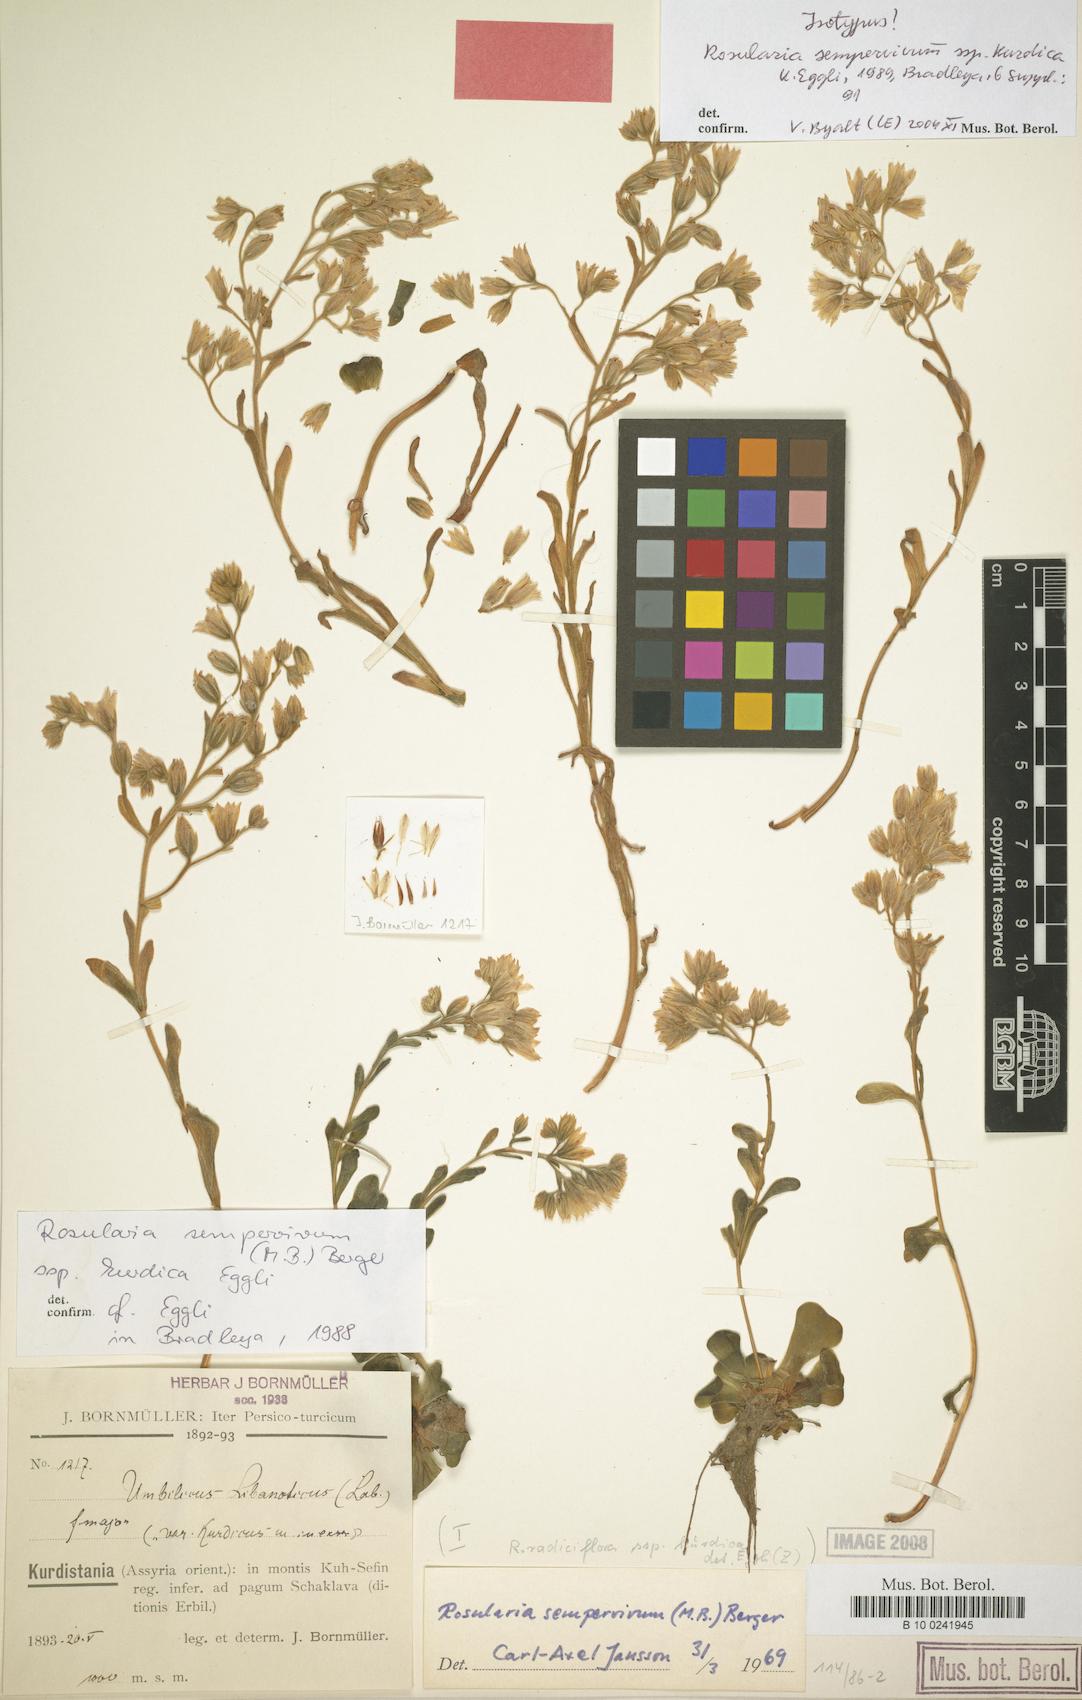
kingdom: Plantae
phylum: Tracheophyta
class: Magnoliopsida
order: Saxifragales
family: Crassulaceae
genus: Rosularia
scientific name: Rosularia sempervivum
